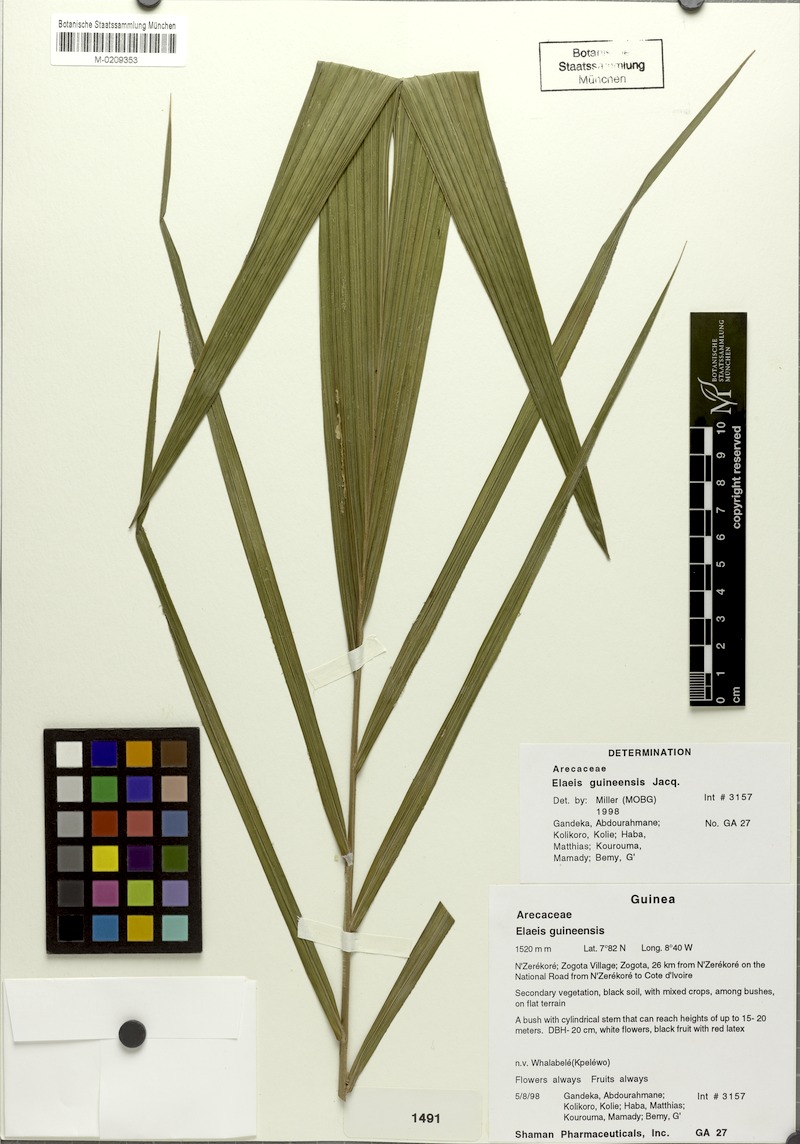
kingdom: Plantae
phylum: Tracheophyta
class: Liliopsida
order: Arecales
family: Arecaceae
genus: Elaeis
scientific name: Elaeis guineensis
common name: Oil palm
